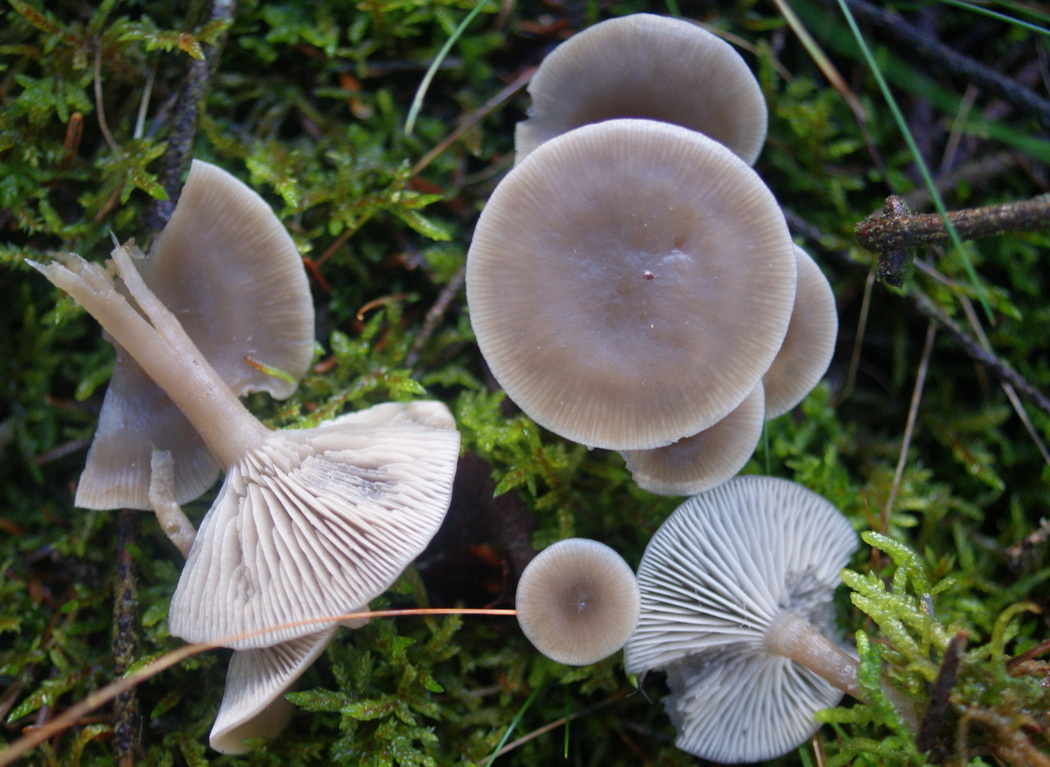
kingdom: Fungi
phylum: Basidiomycota
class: Agaricomycetes
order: Agaricales
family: Tricholomataceae
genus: Clitocybe
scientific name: Clitocybe vibecina
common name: randstribet tragthat
